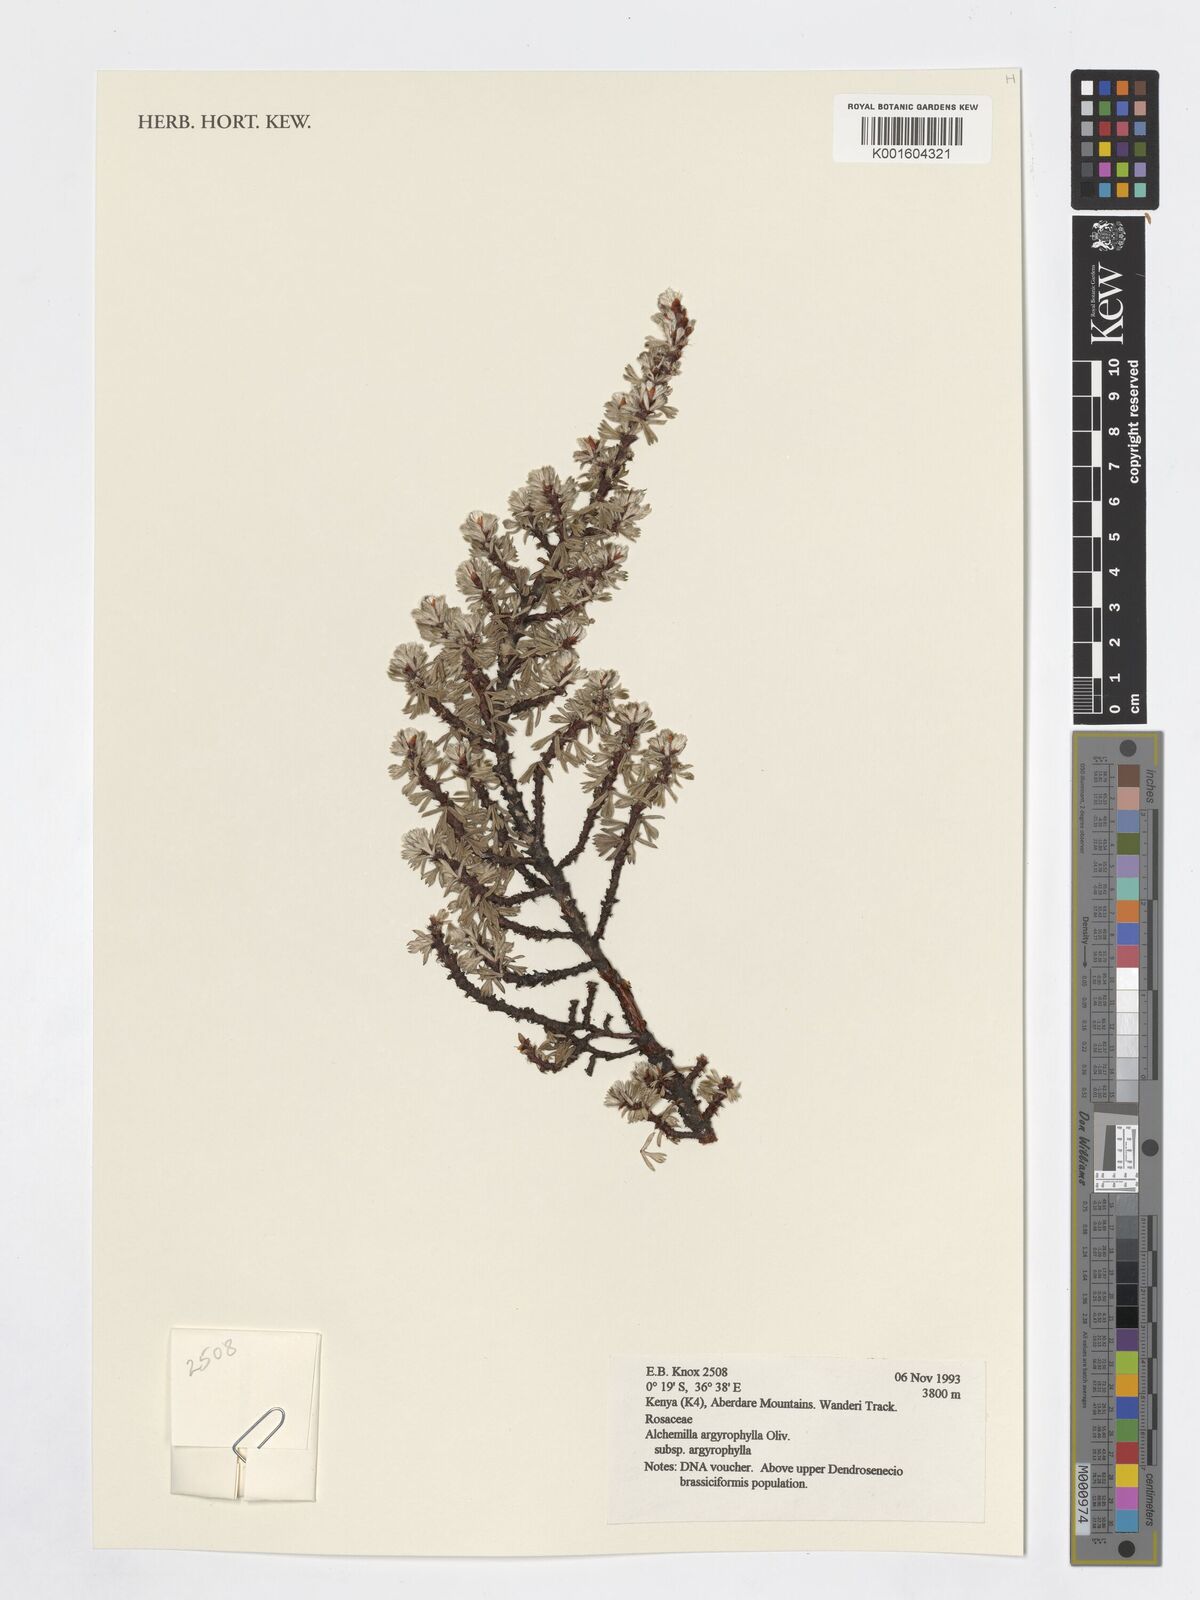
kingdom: Plantae
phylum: Tracheophyta
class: Magnoliopsida
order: Rosales
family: Rosaceae
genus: Alchemilla
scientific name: Alchemilla argyrophylla
